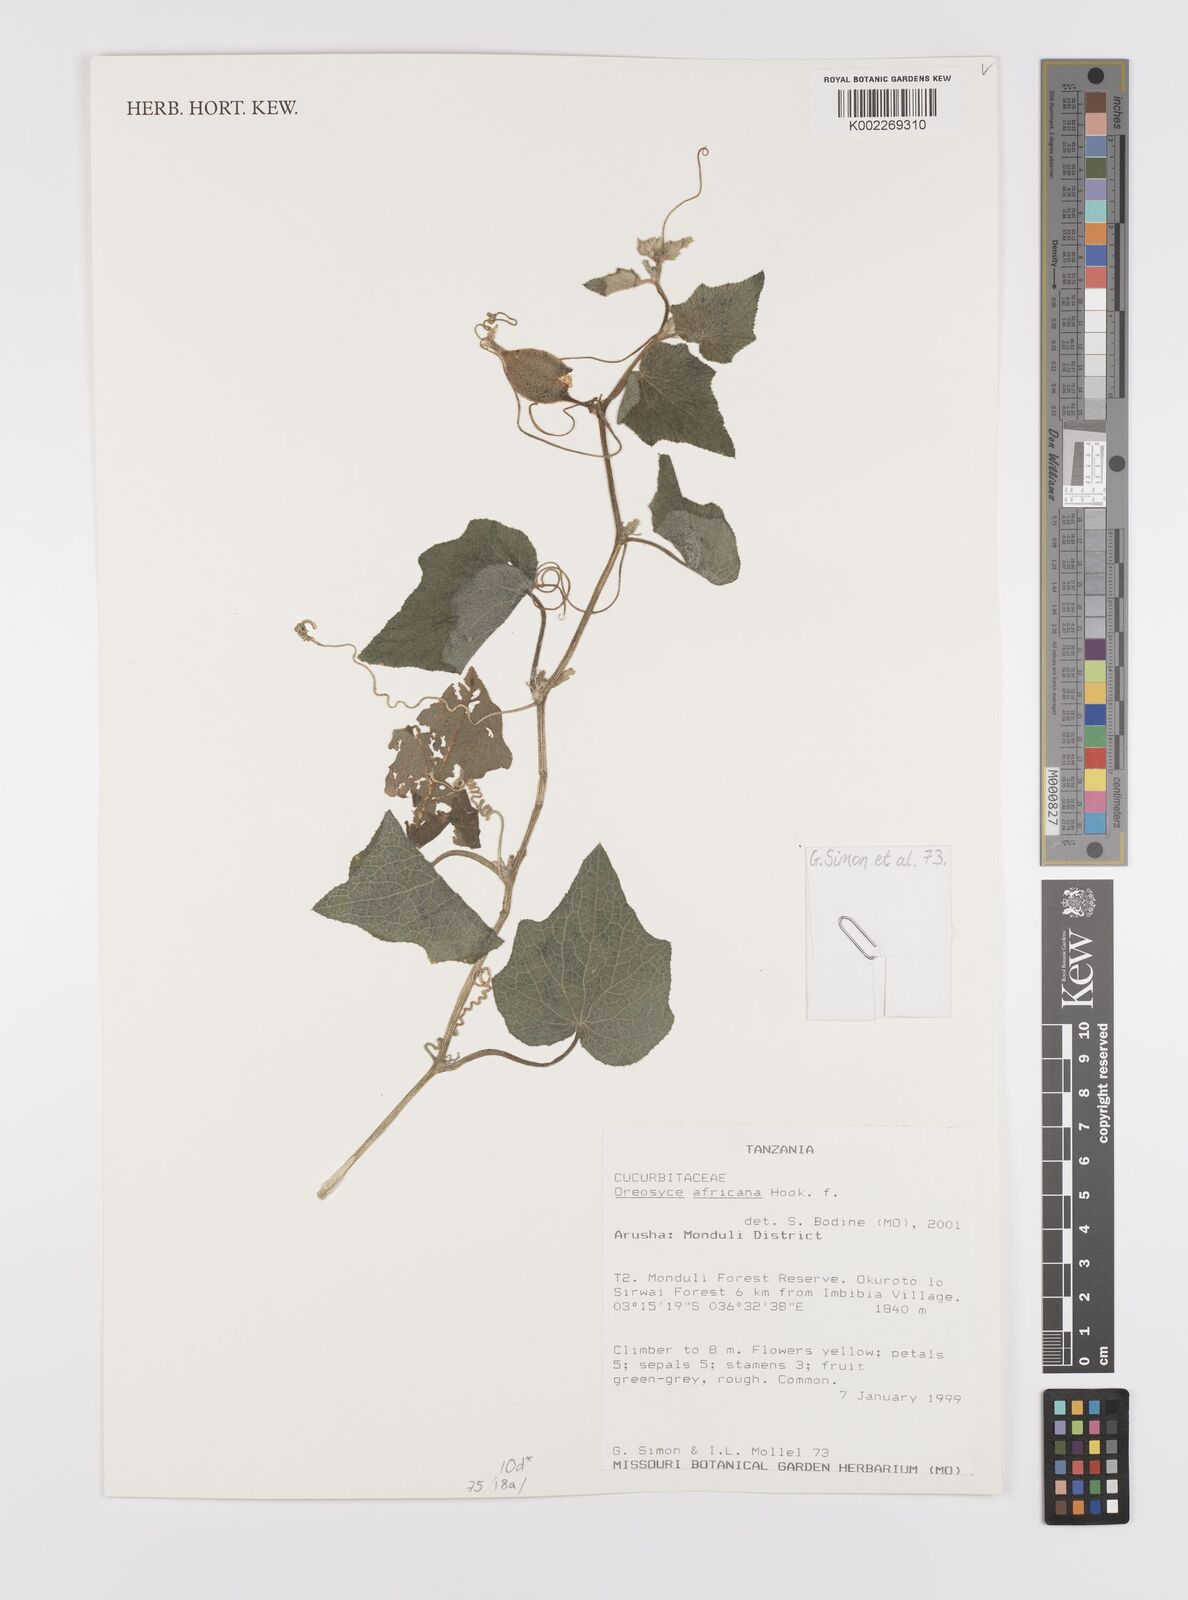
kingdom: Plantae
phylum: Tracheophyta
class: Magnoliopsida
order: Cucurbitales
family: Cucurbitaceae
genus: Cucumis
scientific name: Cucumis oreosyce
